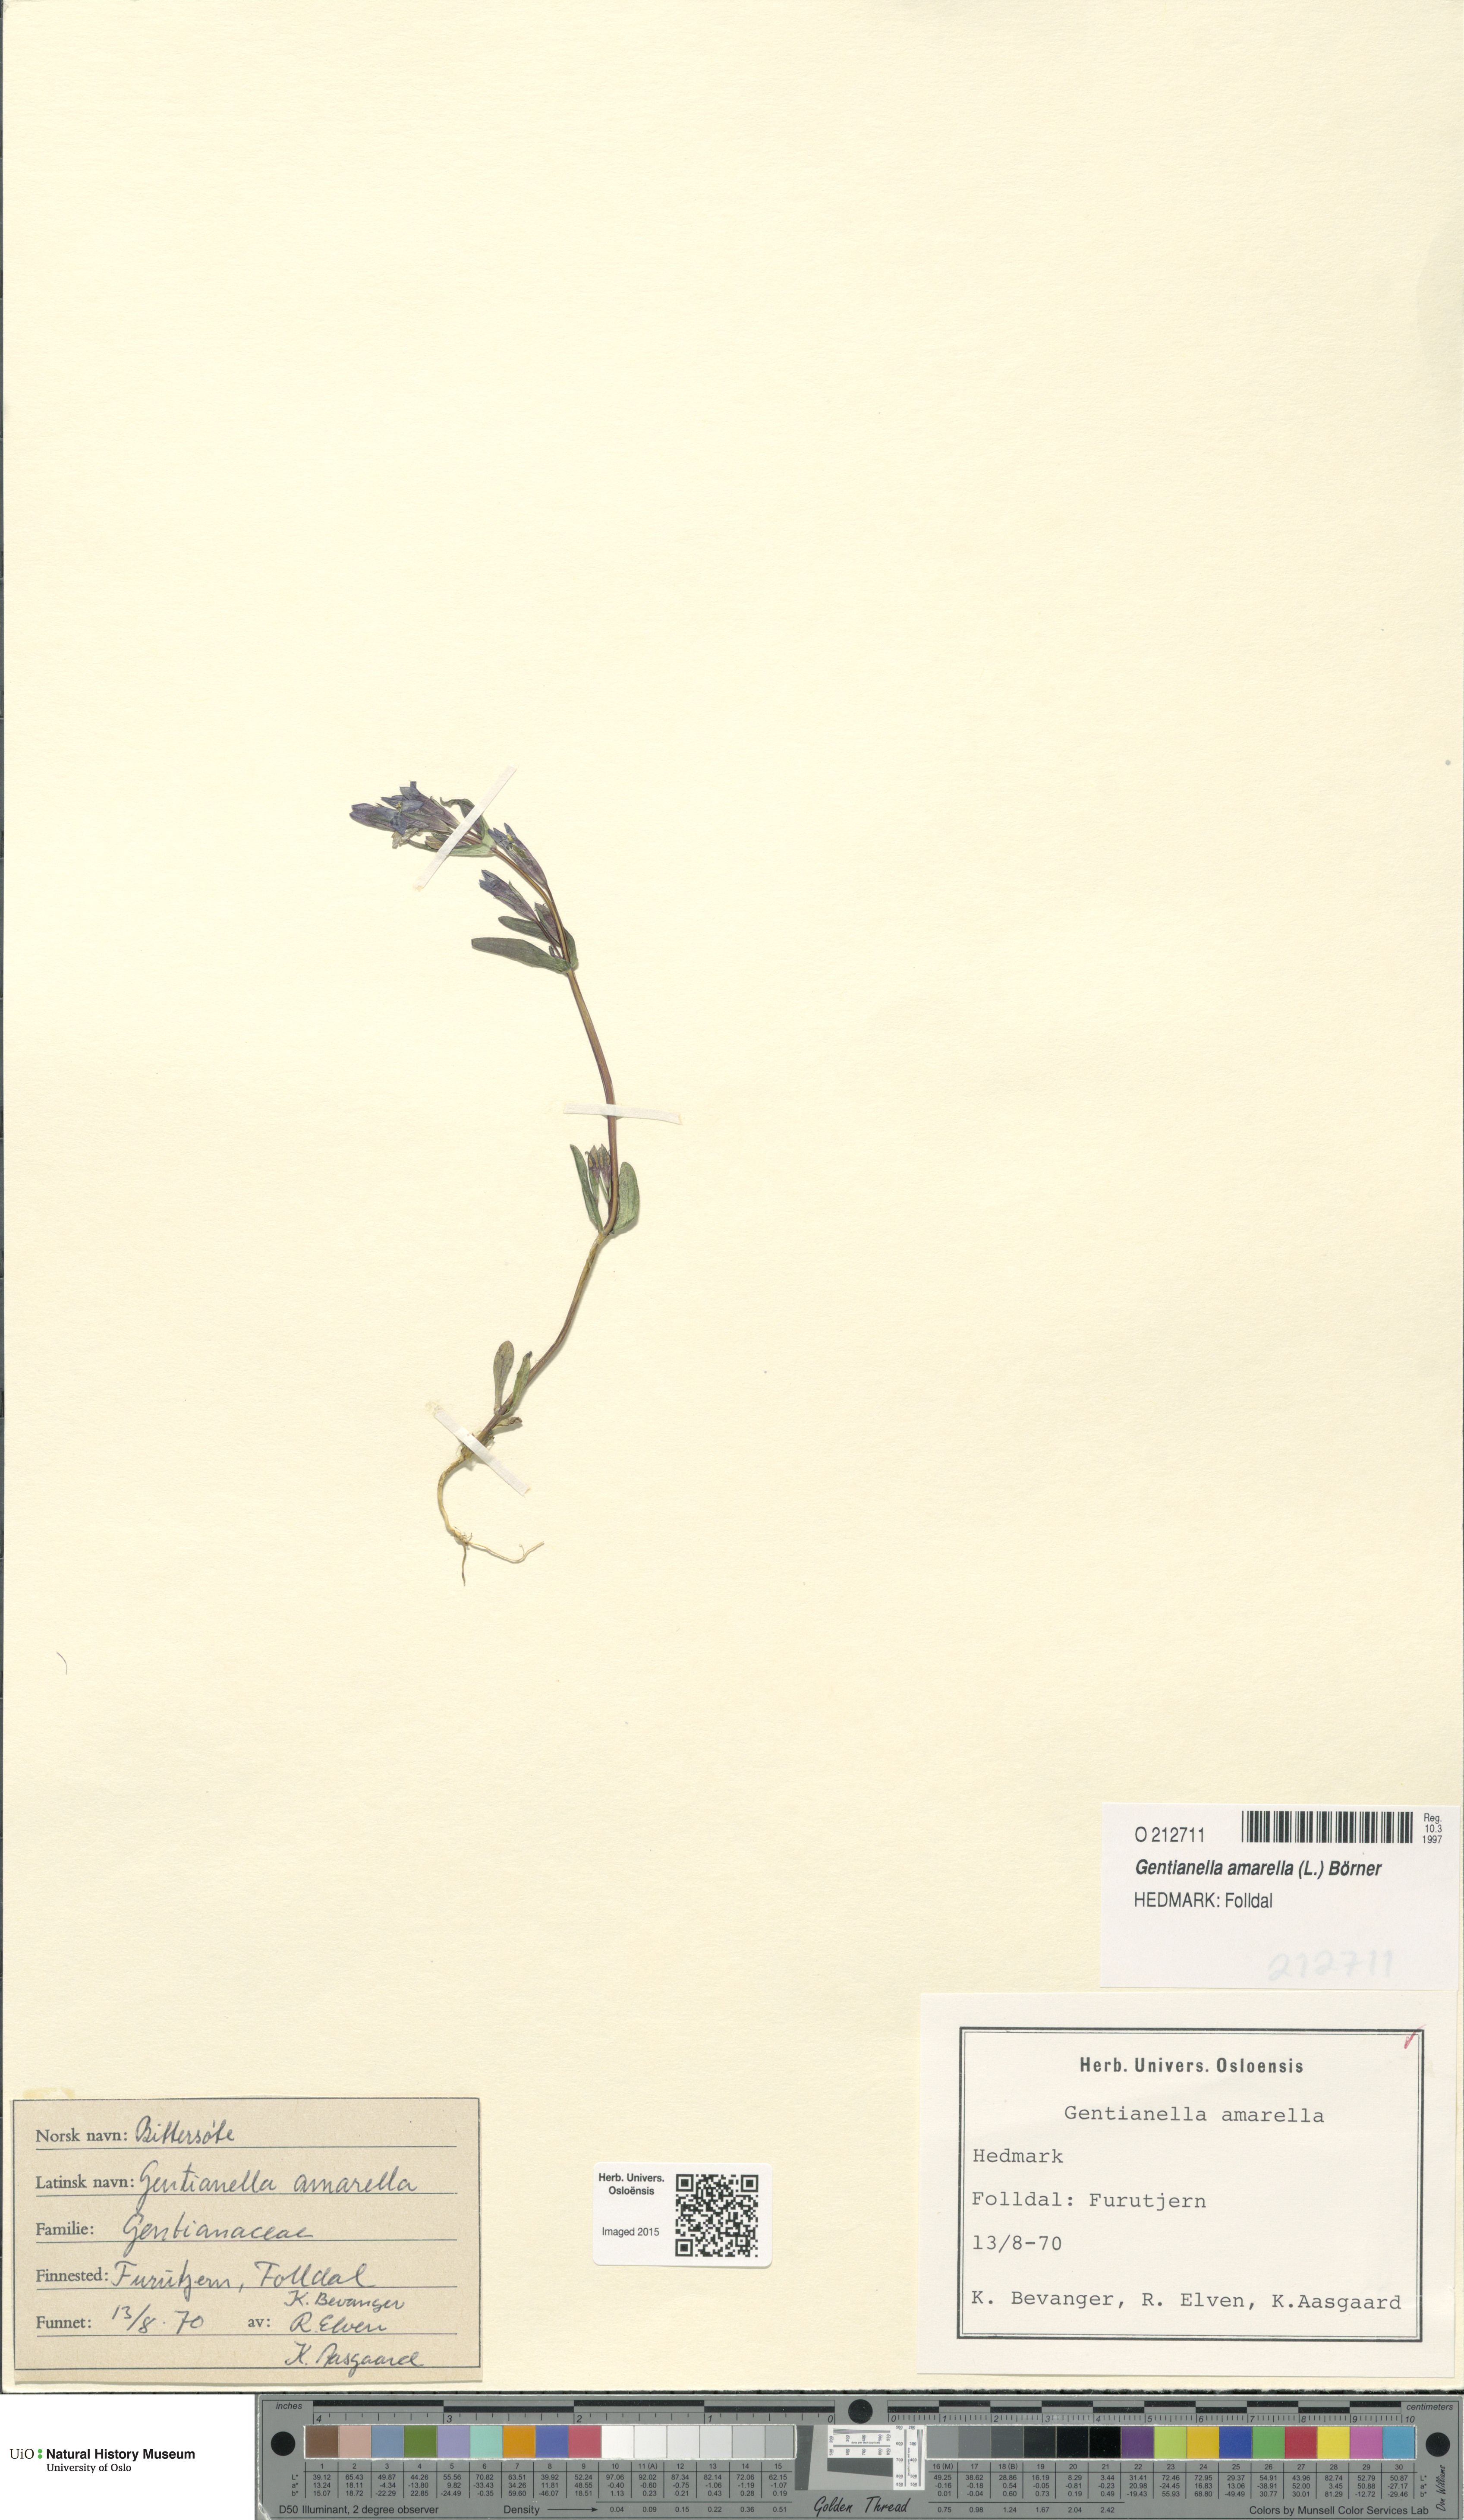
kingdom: Plantae
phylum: Tracheophyta
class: Magnoliopsida
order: Gentianales
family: Gentianaceae
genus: Gentianella
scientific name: Gentianella amarella
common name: Autumn gentian
